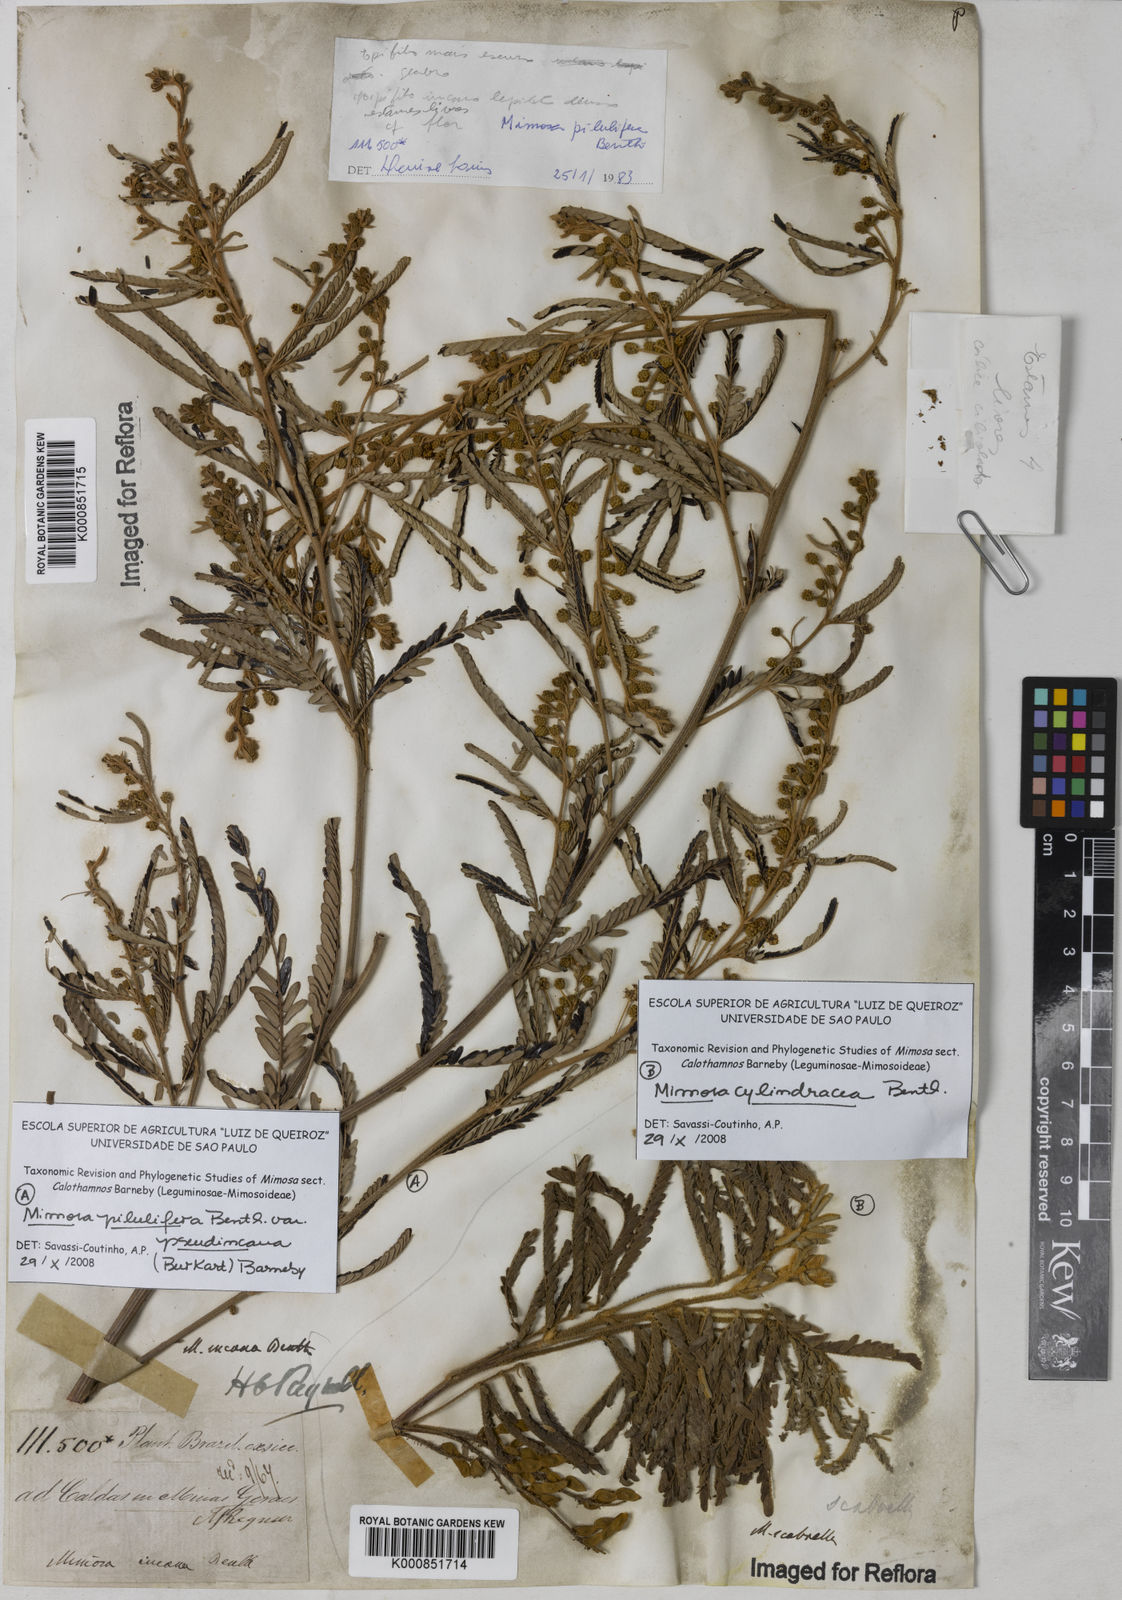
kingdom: Plantae
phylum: Tracheophyta
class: Magnoliopsida
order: Fabales
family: Fabaceae
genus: Mimosa
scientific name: Mimosa pilulifera
